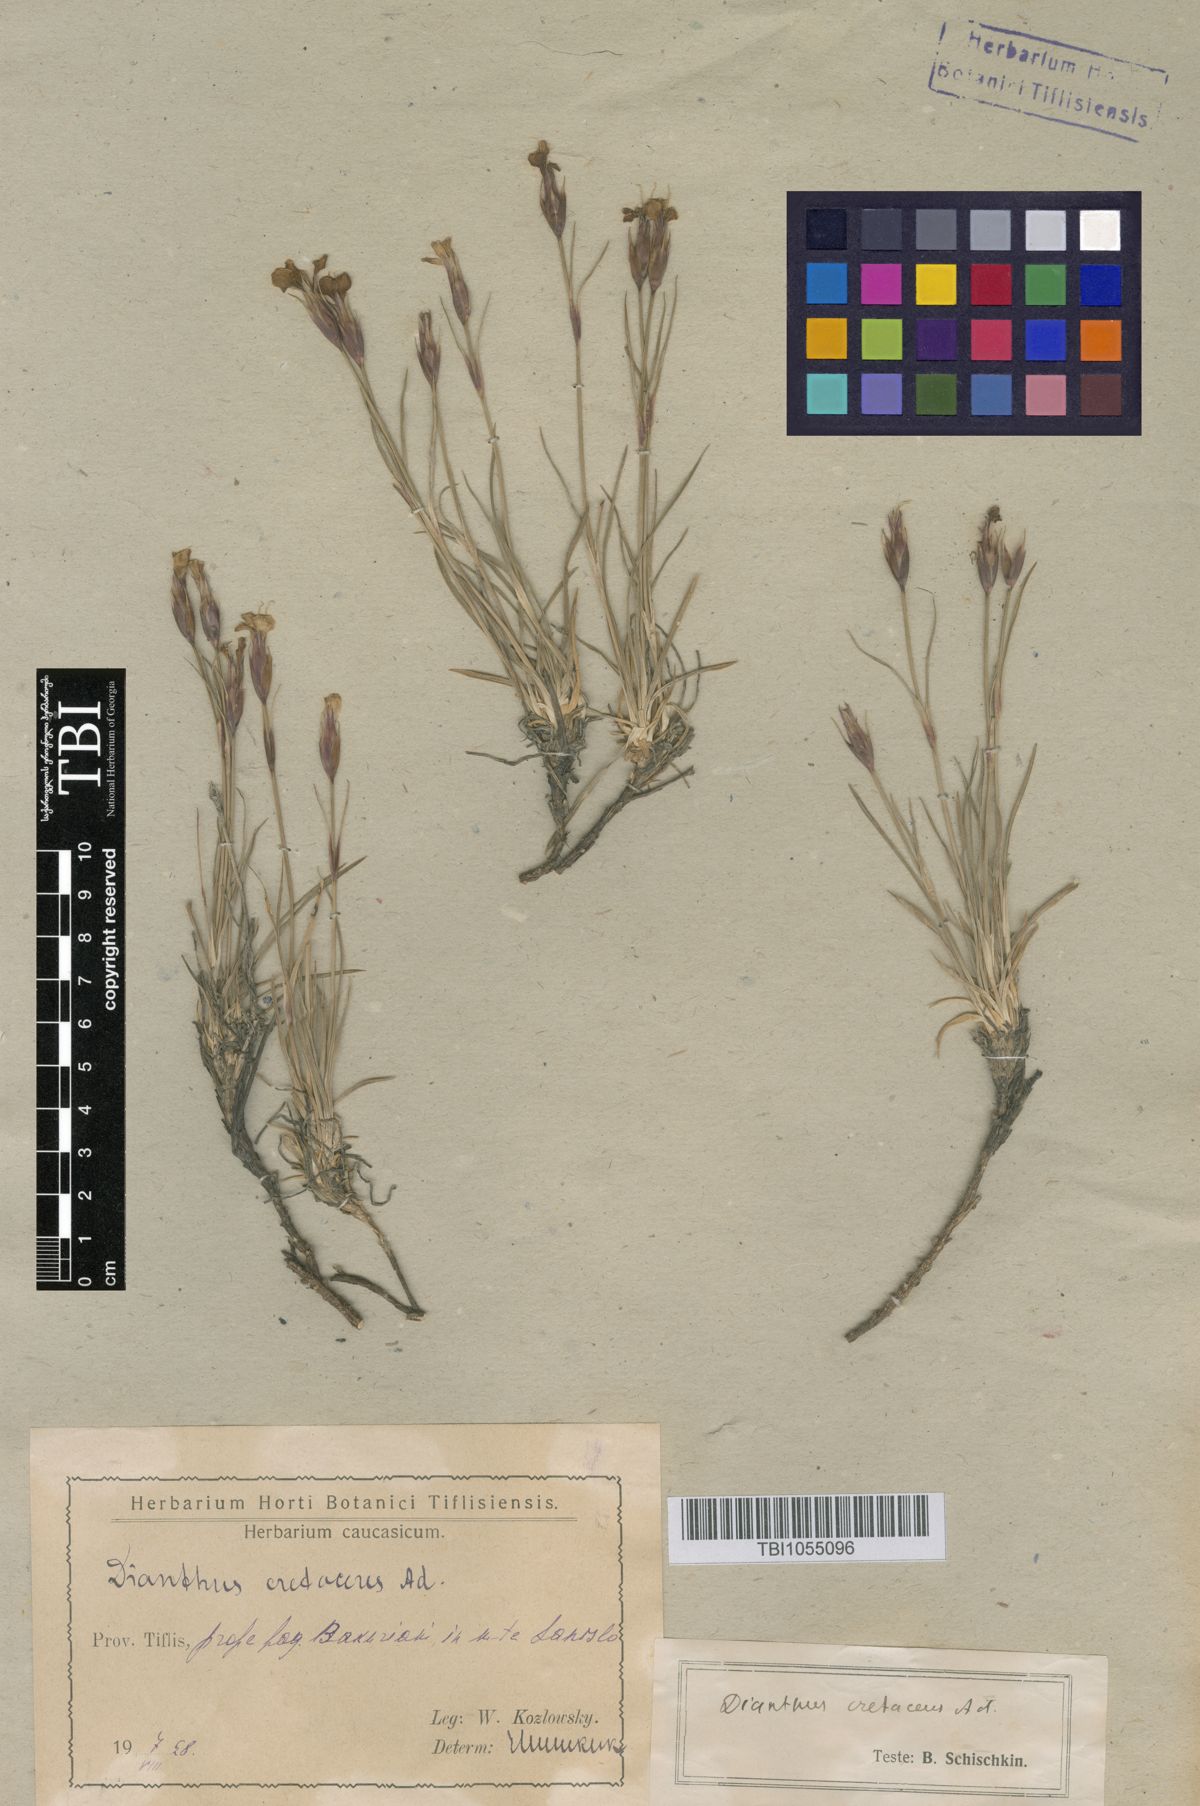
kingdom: Plantae
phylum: Tracheophyta
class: Magnoliopsida
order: Caryophyllales
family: Caryophyllaceae
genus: Dianthus
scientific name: Dianthus cretaceus
